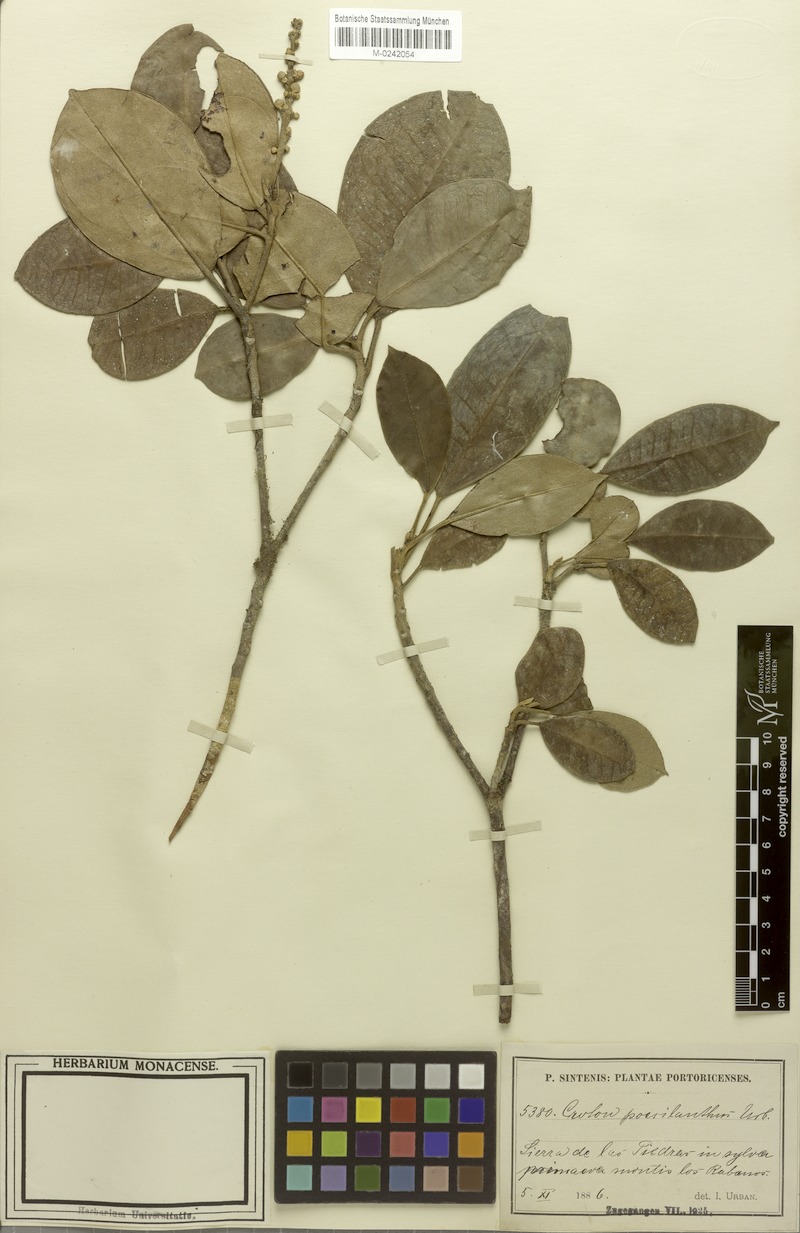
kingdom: Plantae
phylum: Tracheophyta
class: Magnoliopsida
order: Malpighiales
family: Euphorbiaceae
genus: Croton
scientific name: Croton poecilanthus
